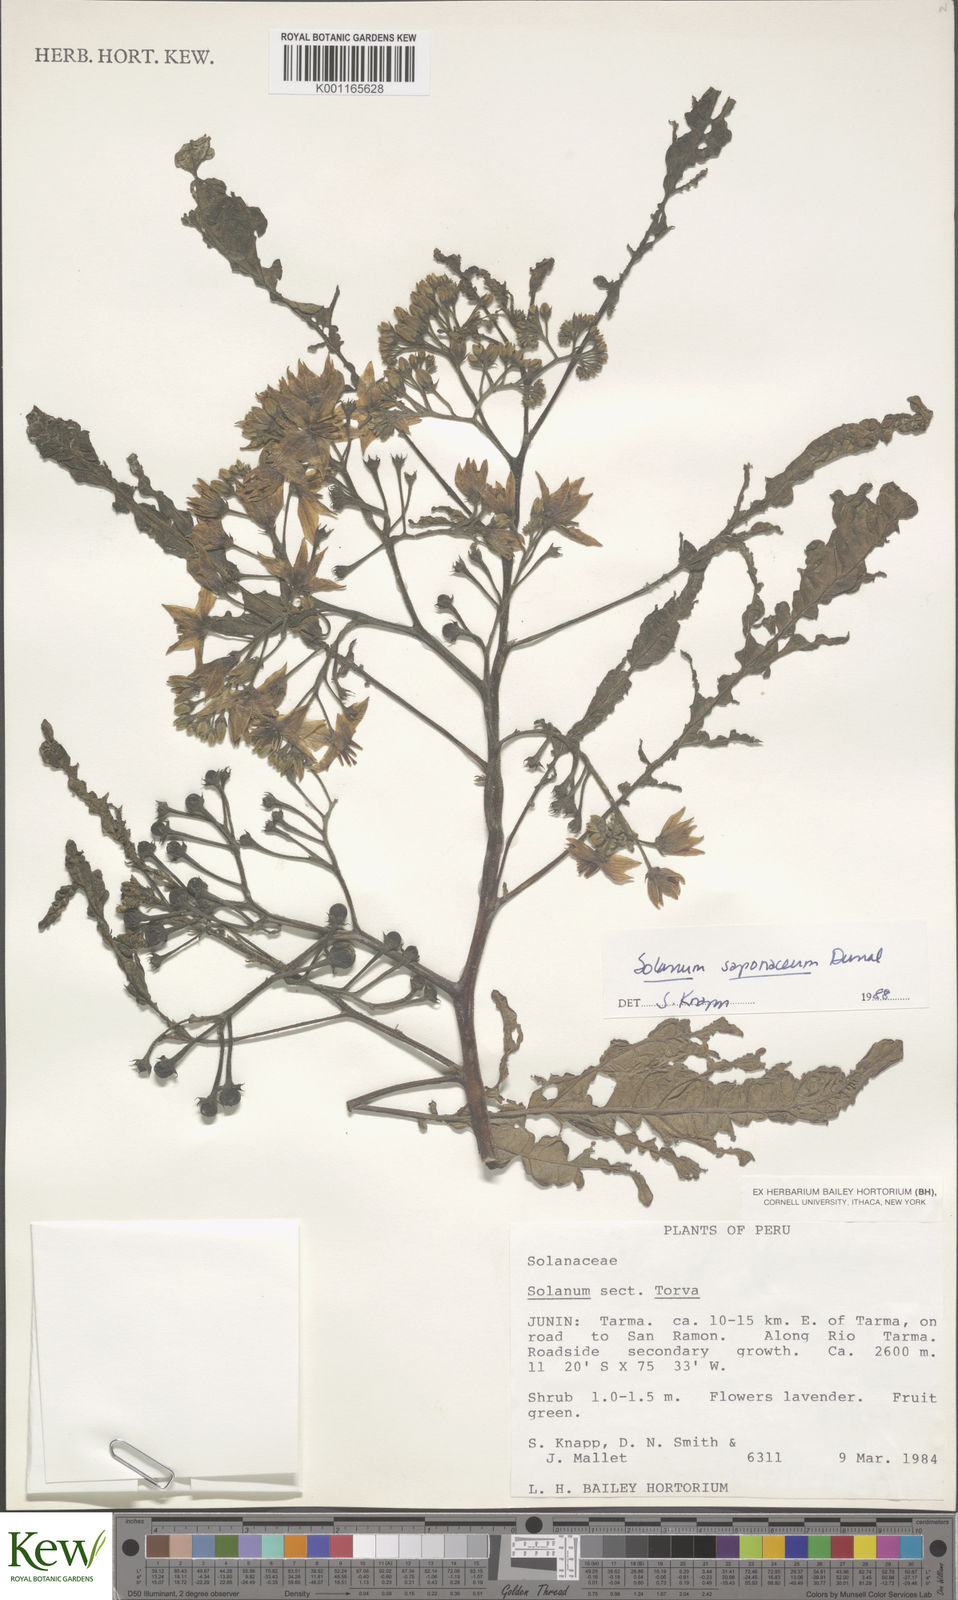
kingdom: Plantae
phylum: Tracheophyta
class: Magnoliopsida
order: Solanales
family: Solanaceae
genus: Solanum
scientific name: Solanum saponaceum
